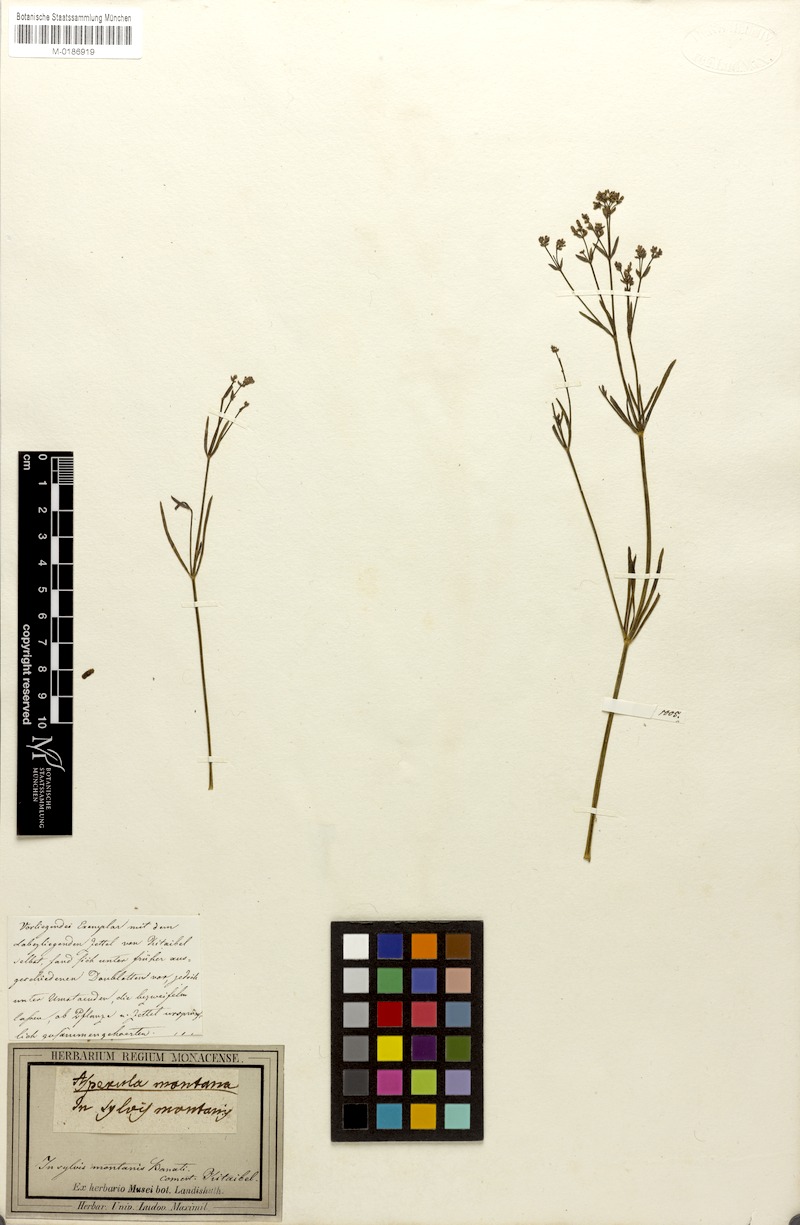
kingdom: Plantae
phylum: Tracheophyta
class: Magnoliopsida
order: Gentianales
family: Rubiaceae
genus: Cynanchica
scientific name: Cynanchica rumelica
